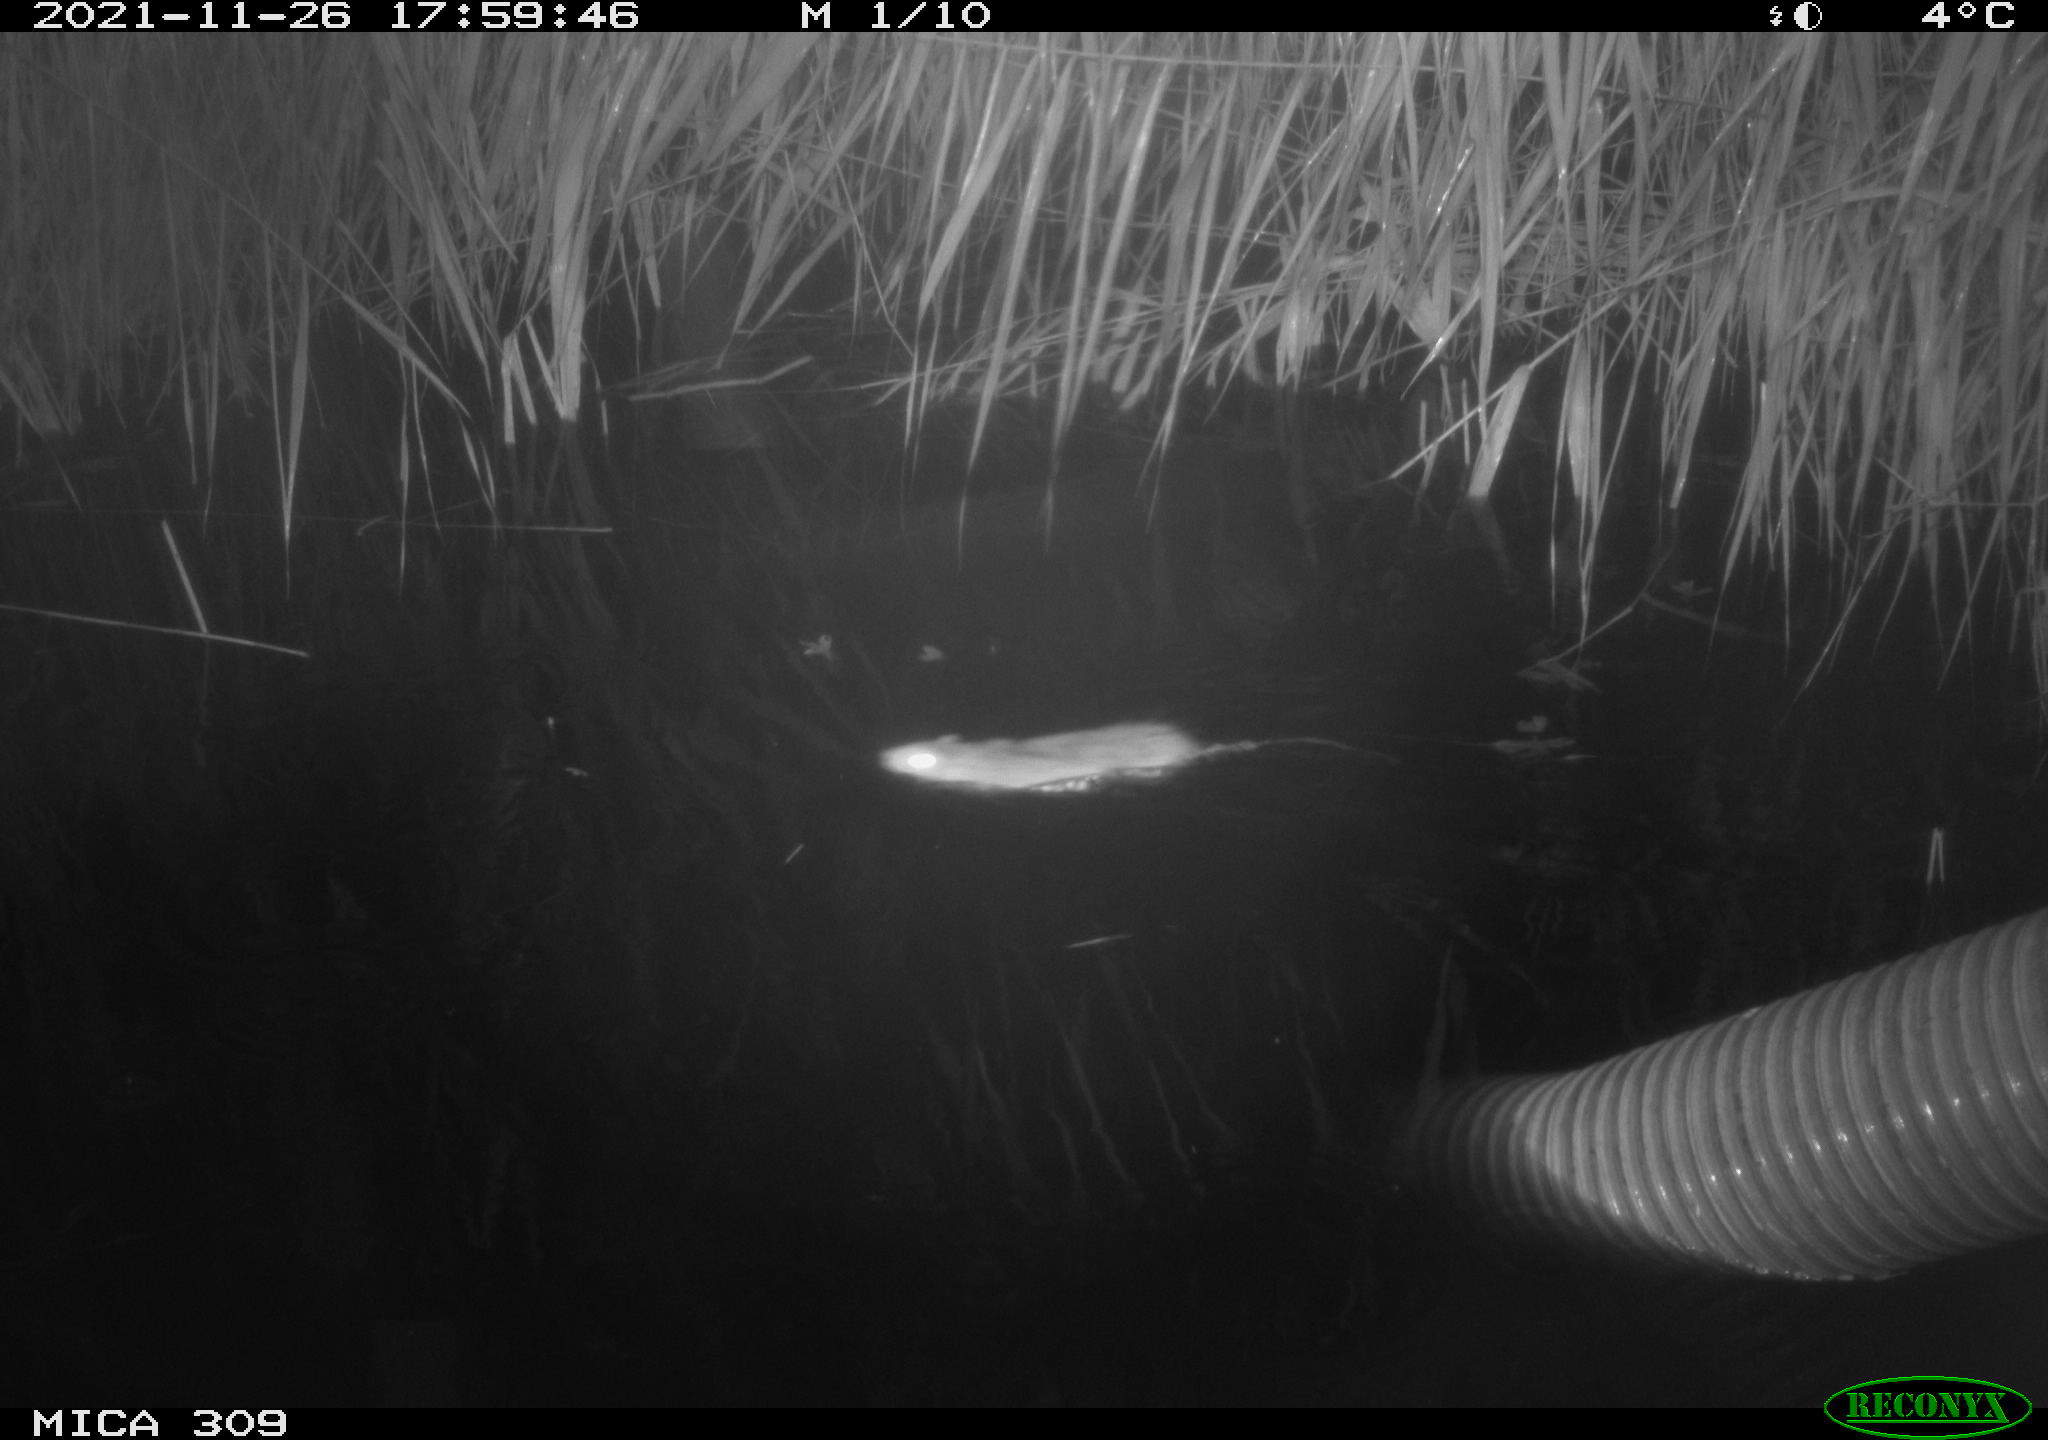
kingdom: Animalia
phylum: Chordata
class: Mammalia
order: Rodentia
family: Muridae
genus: Rattus
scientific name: Rattus norvegicus
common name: Brown rat
